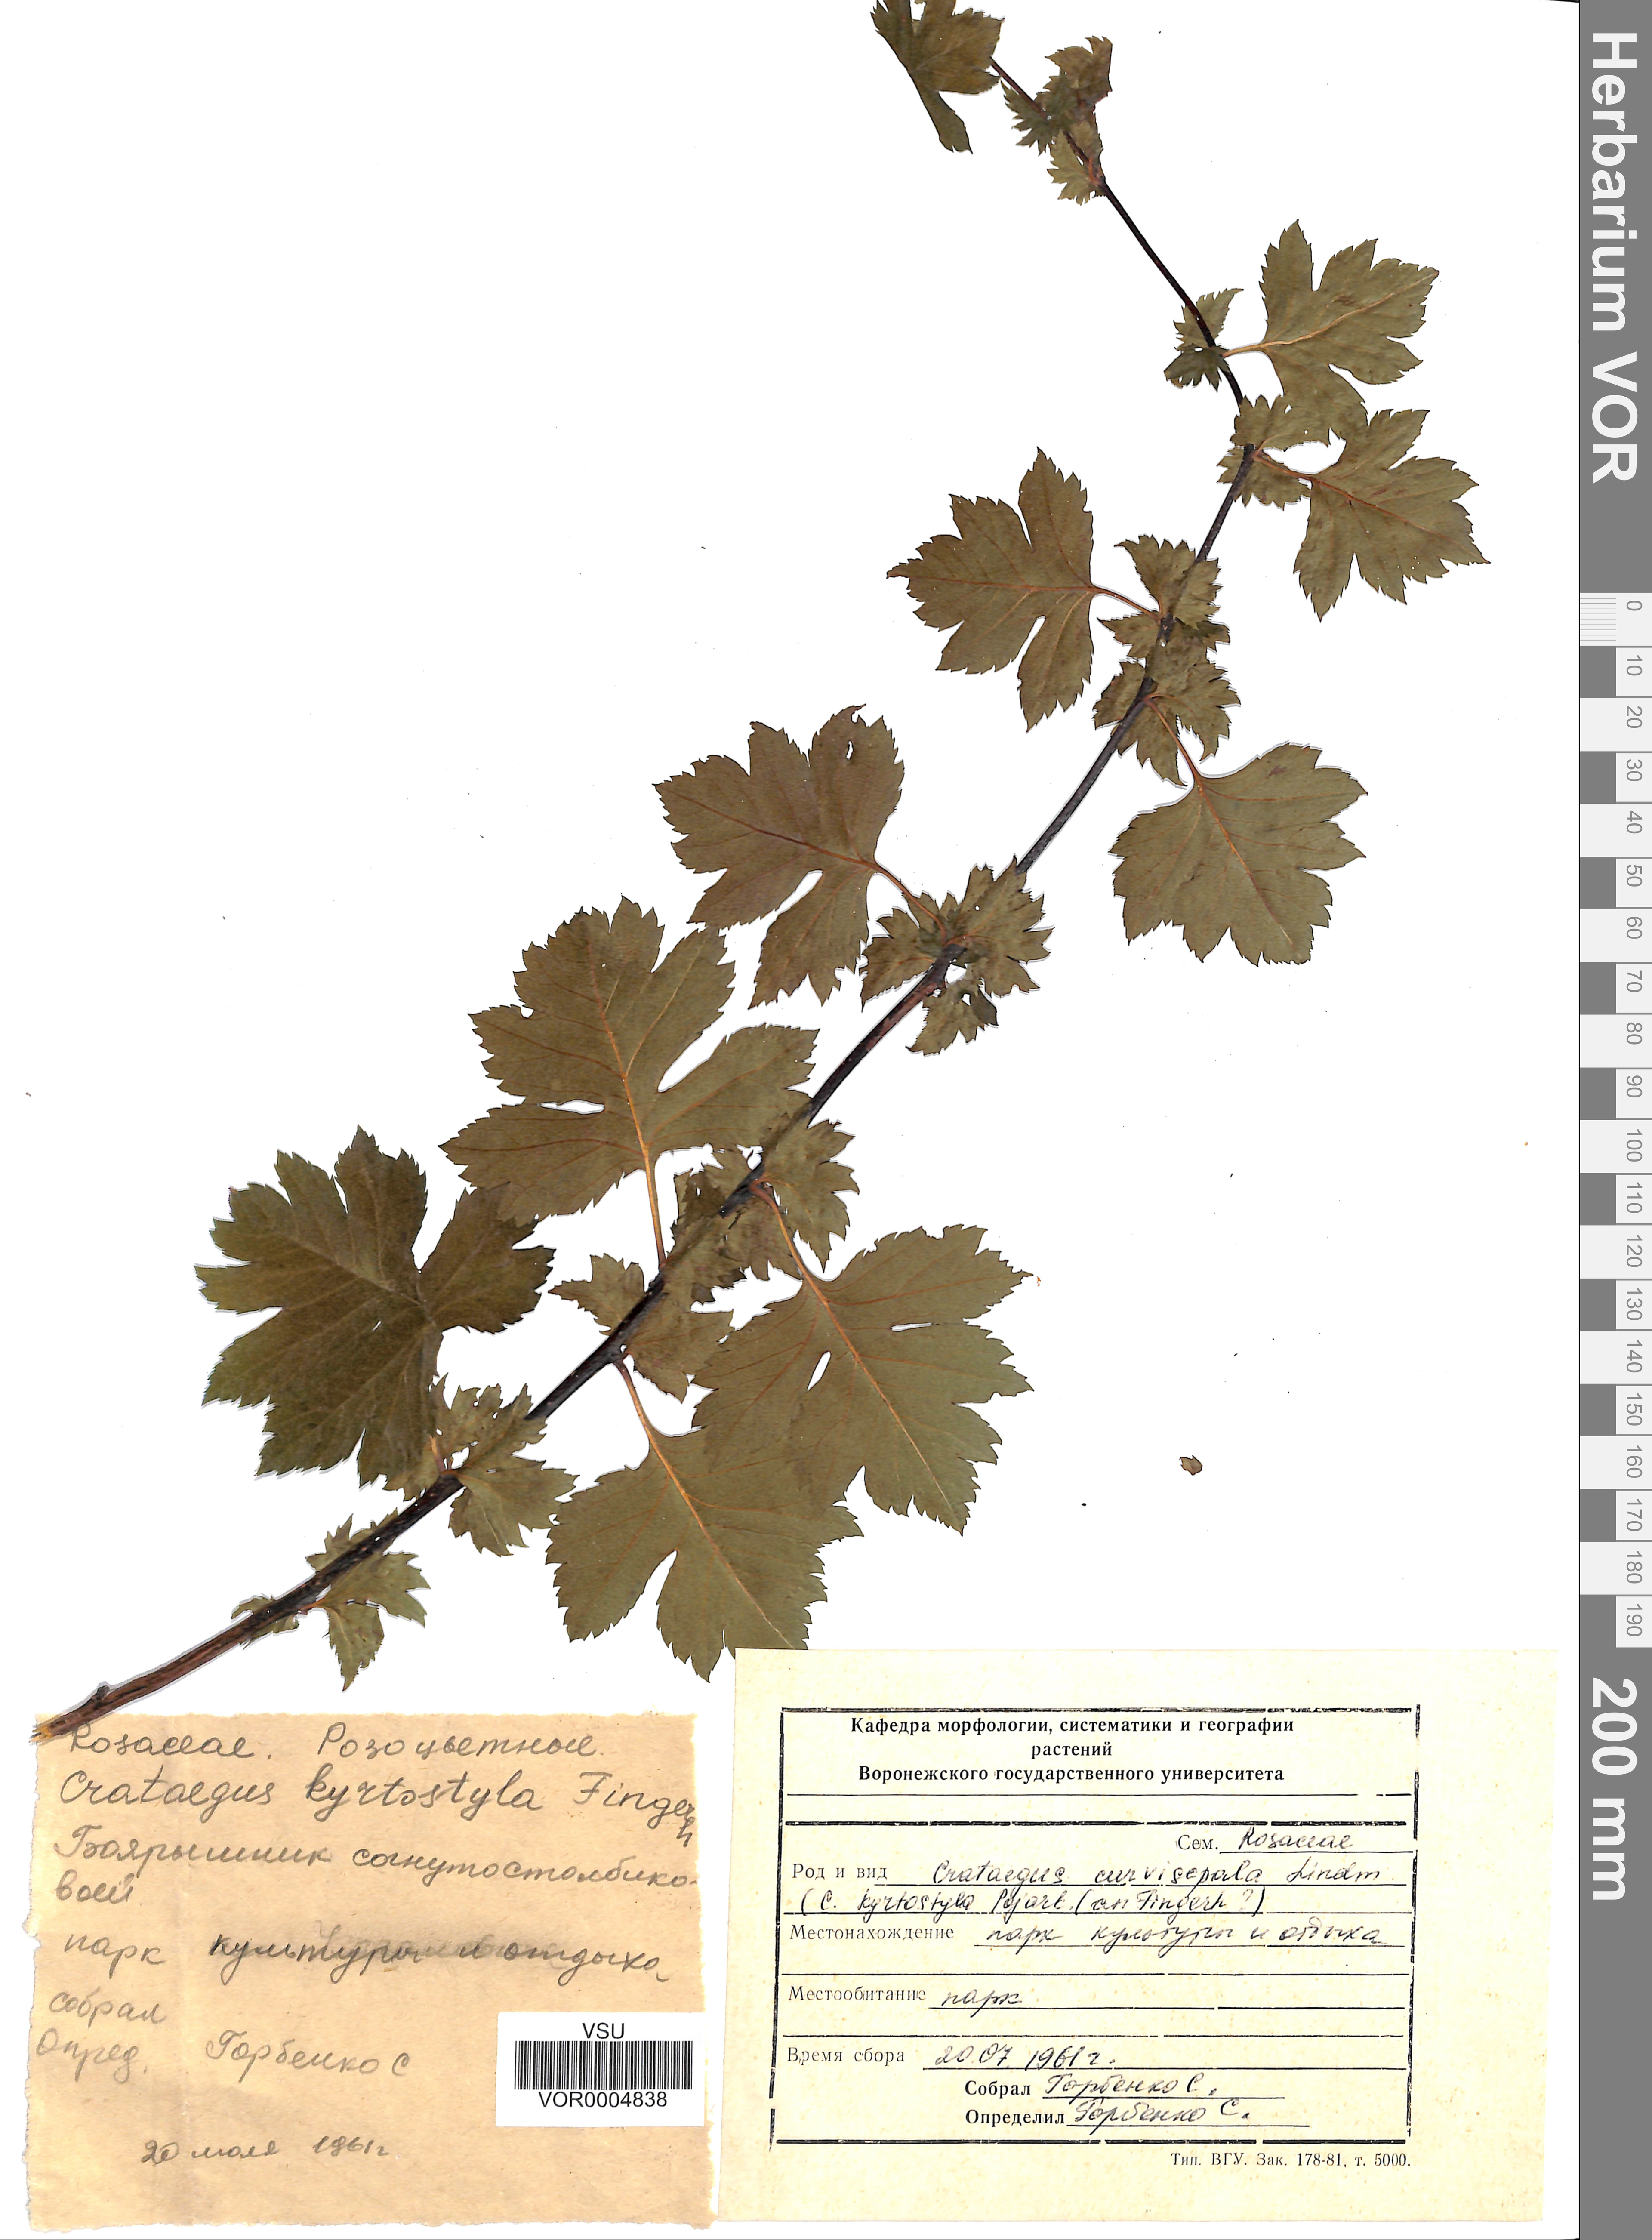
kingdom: Plantae
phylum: Tracheophyta
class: Magnoliopsida
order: Rosales
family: Rosaceae
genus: Crataegus
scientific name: Crataegus praemonticola
